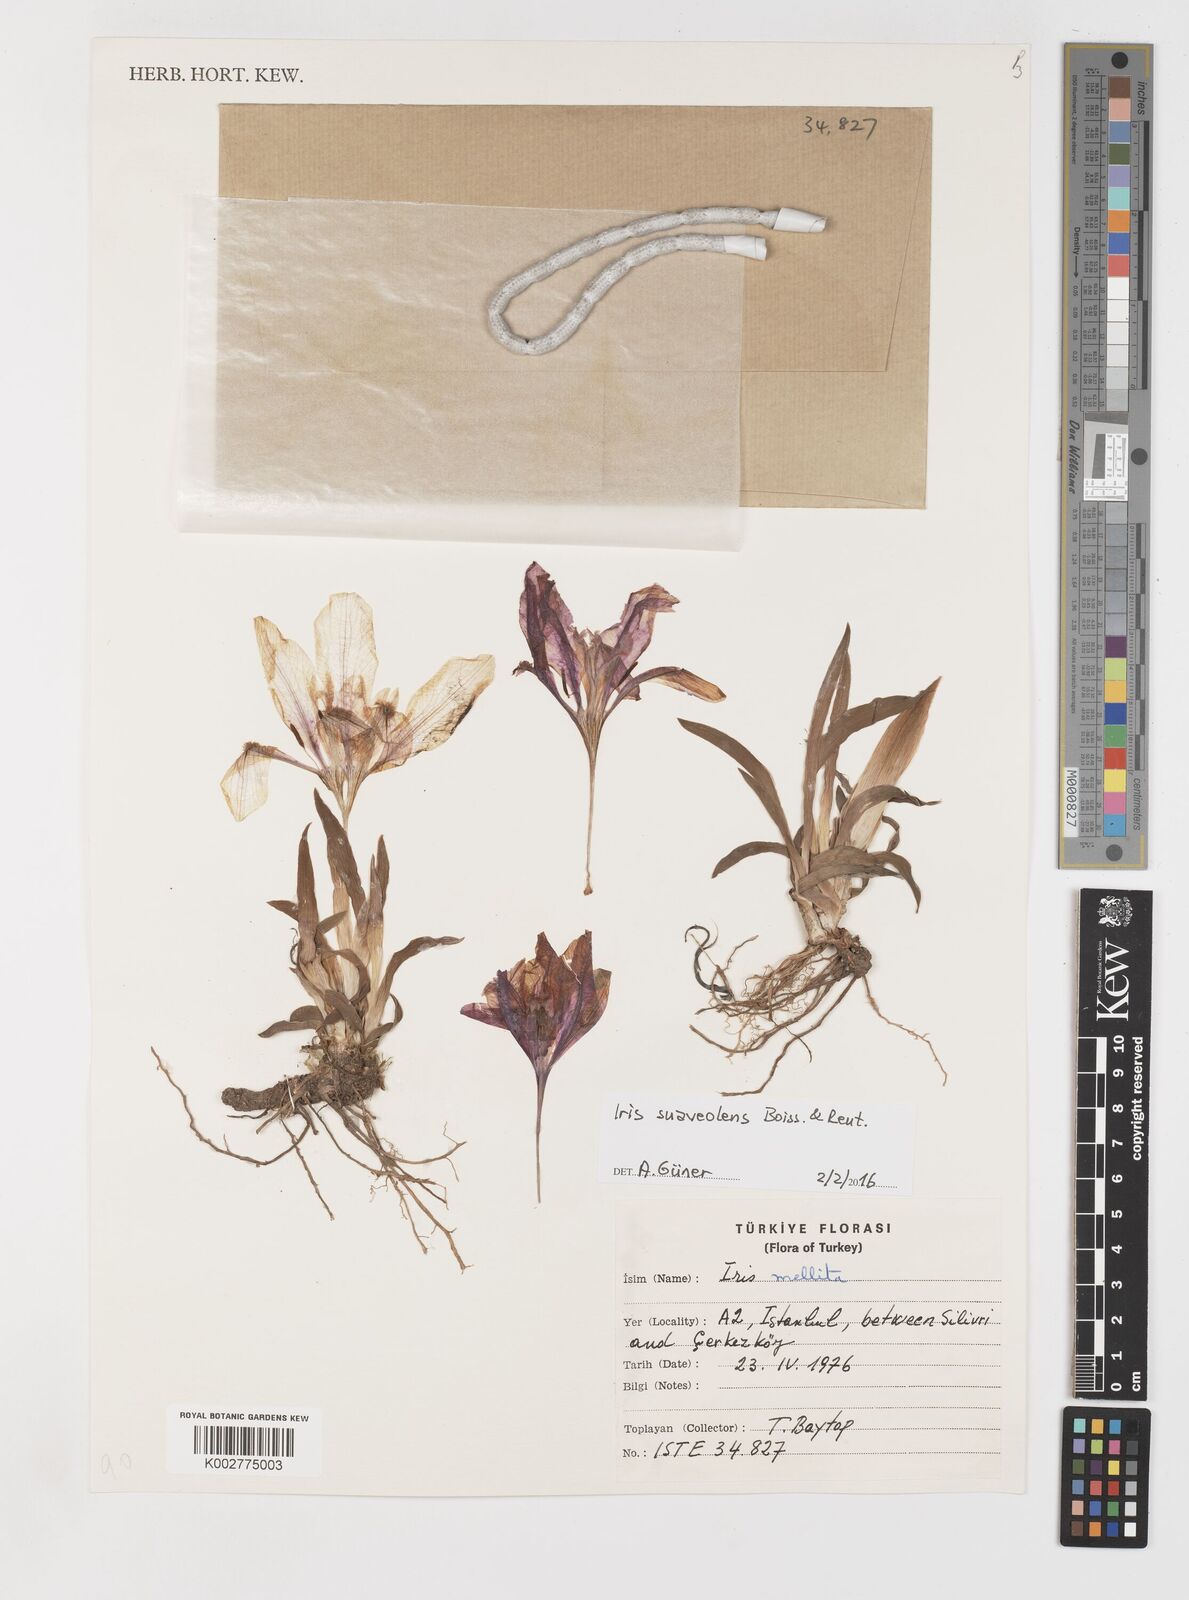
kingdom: Plantae
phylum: Tracheophyta
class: Liliopsida
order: Asparagales
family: Iridaceae
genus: Iris
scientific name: Iris suaveolens
